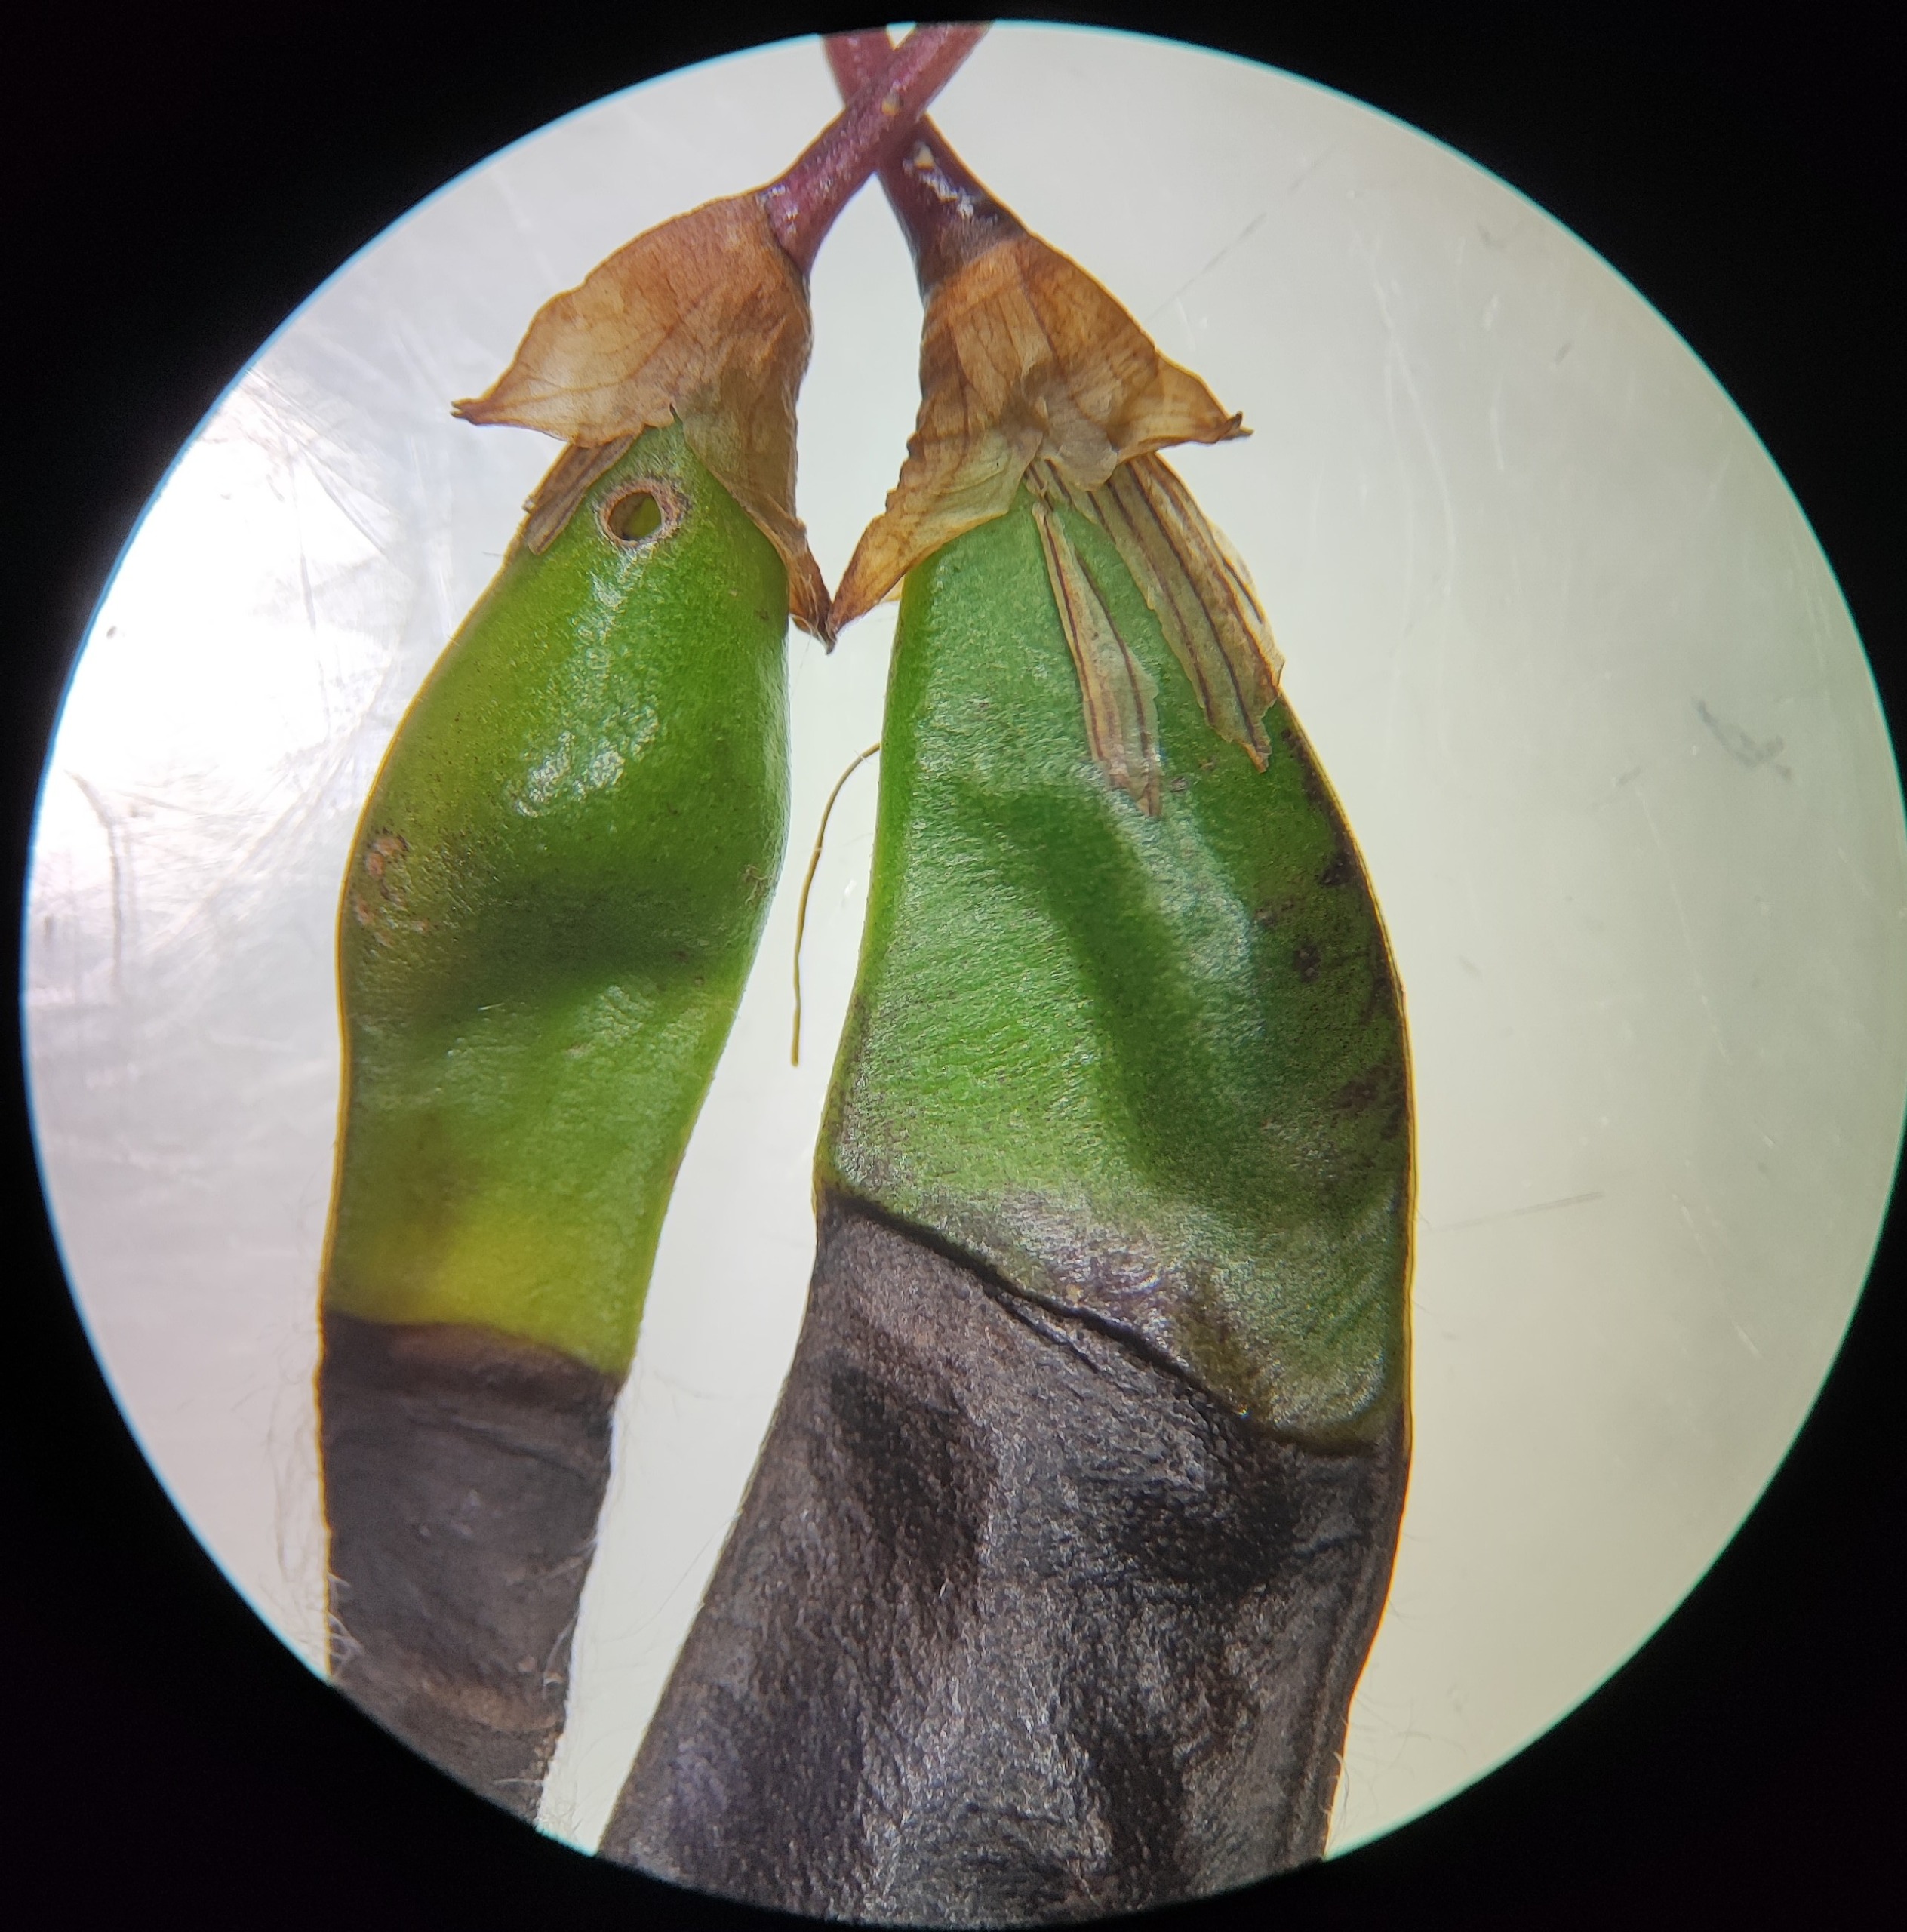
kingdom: Animalia
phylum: Arthropoda
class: Insecta
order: Diptera
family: Cecidomyiidae
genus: Asphondylia
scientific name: Asphondylia sarothamni
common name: Gyvelmycelgalmyg
